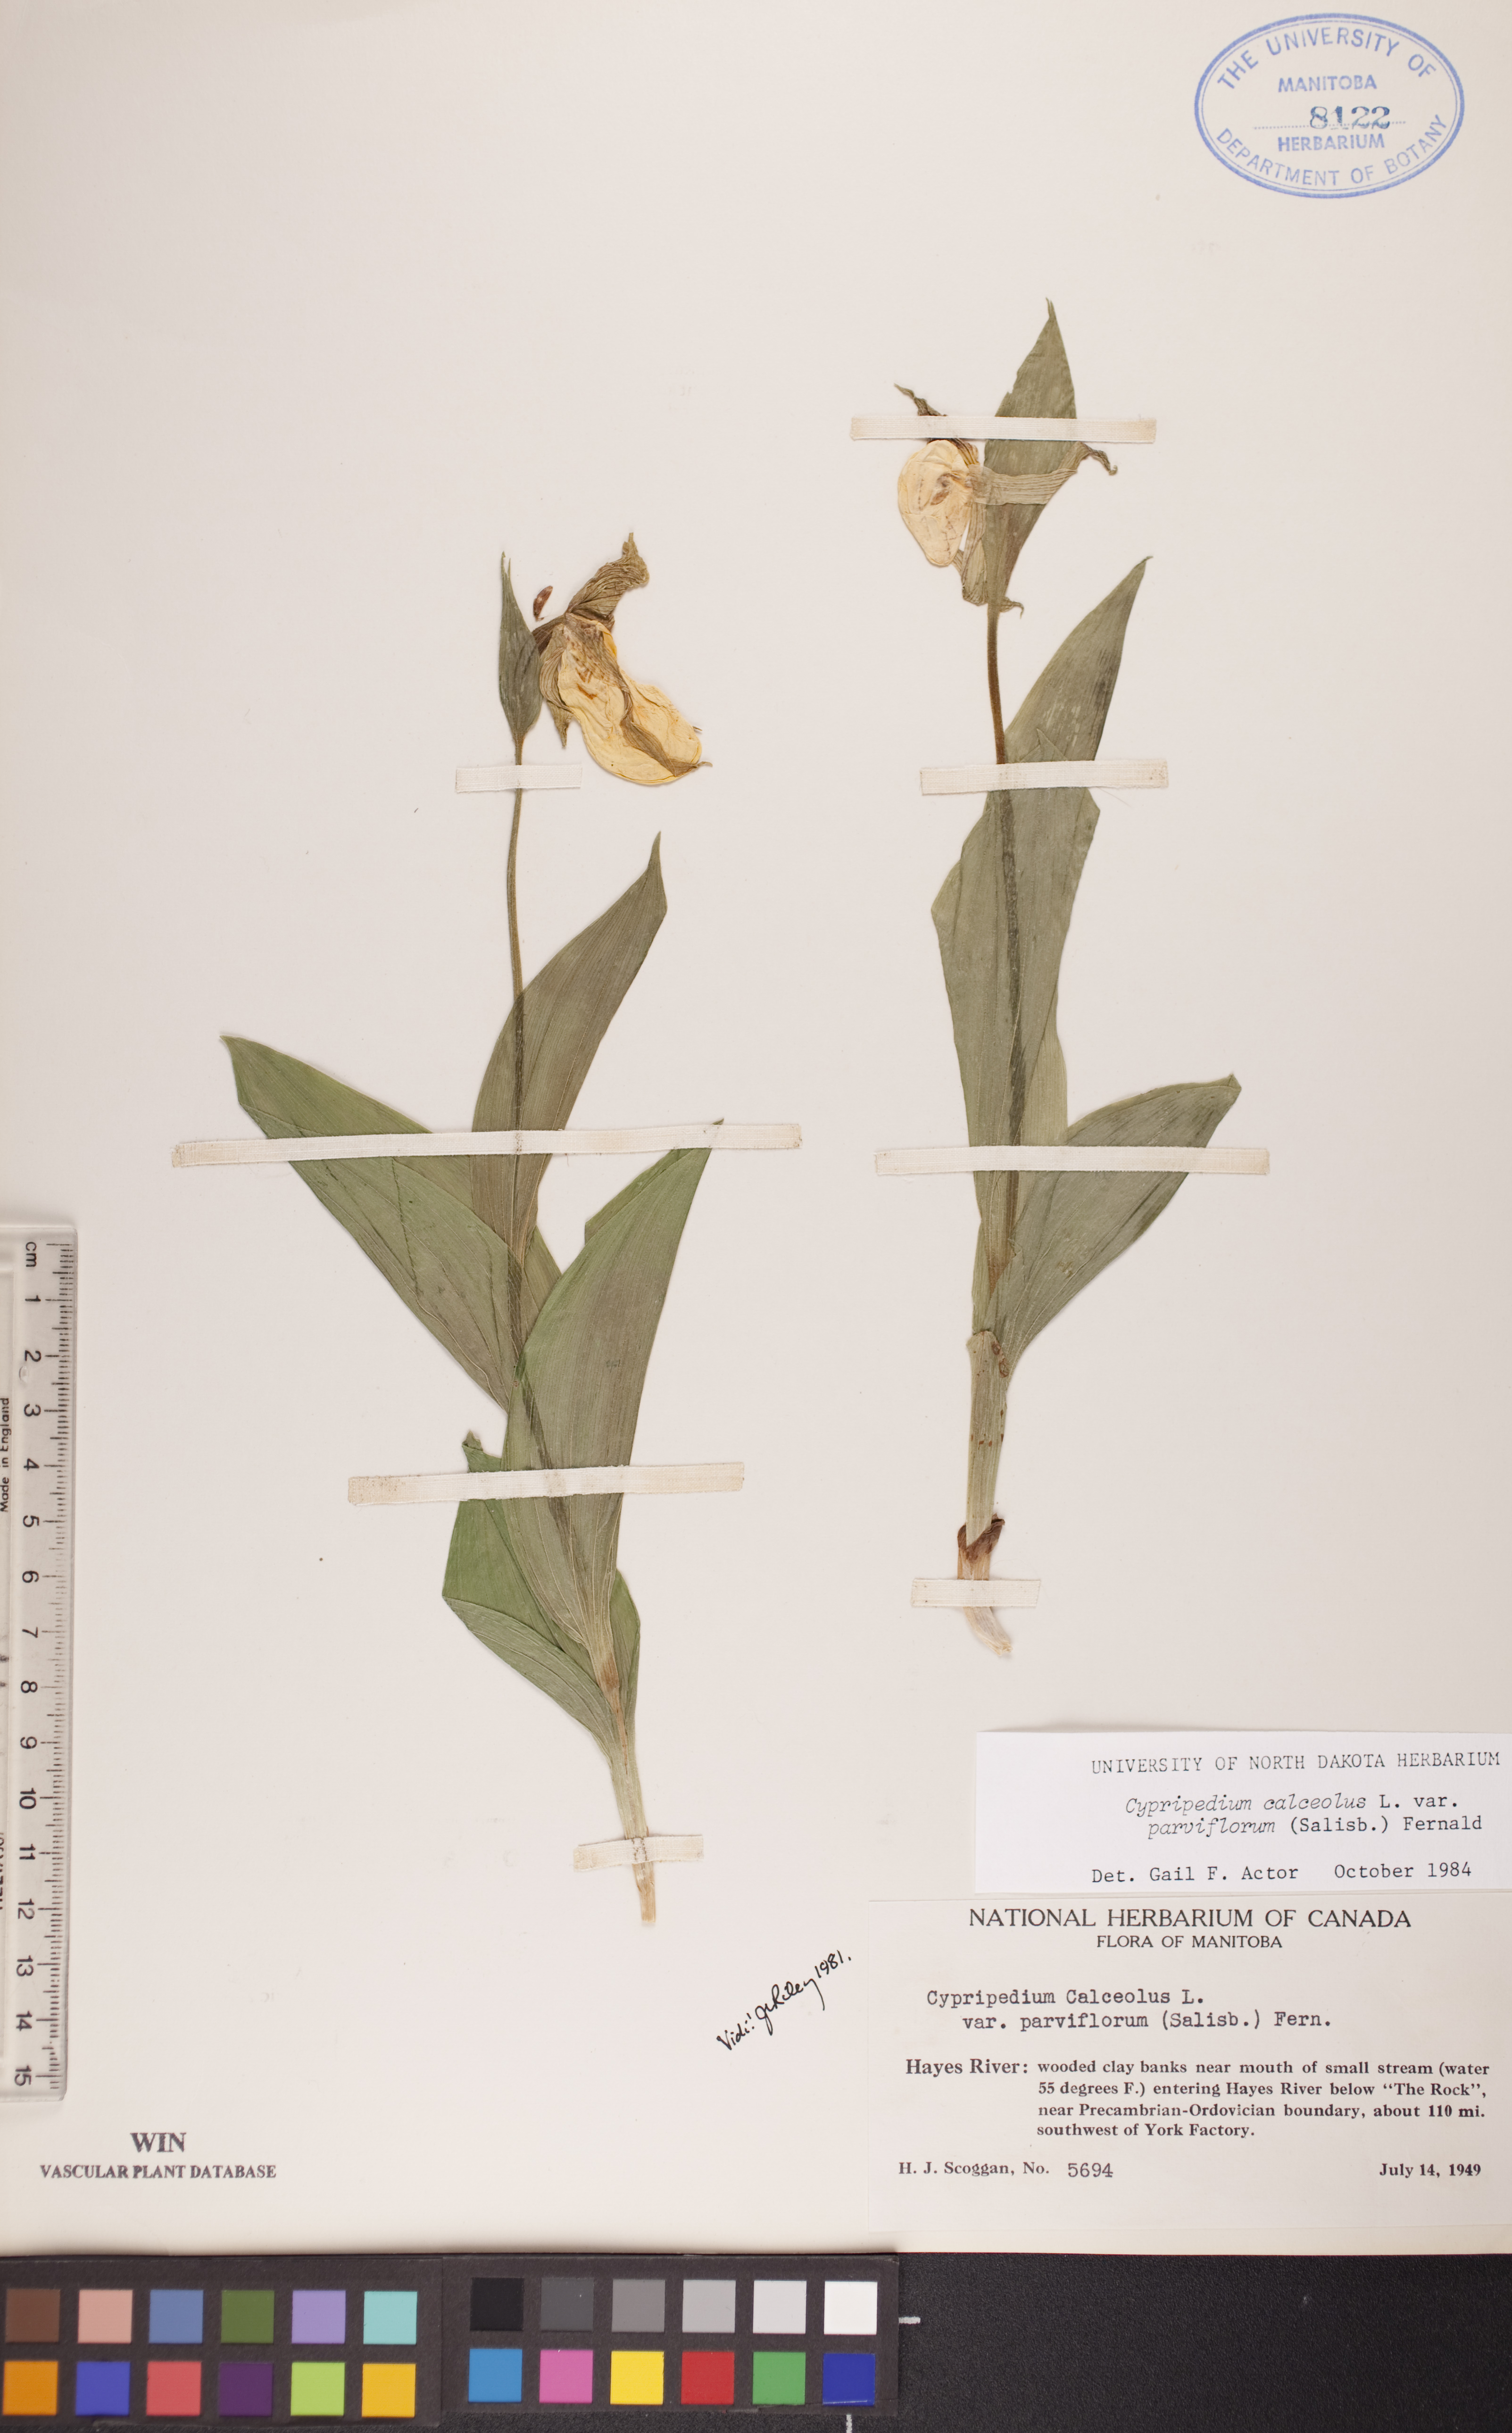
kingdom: Plantae
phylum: Tracheophyta
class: Liliopsida
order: Asparagales
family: Orchidaceae
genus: Cypripedium
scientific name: Cypripedium parviflorum
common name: American yellow lady's-slipper
